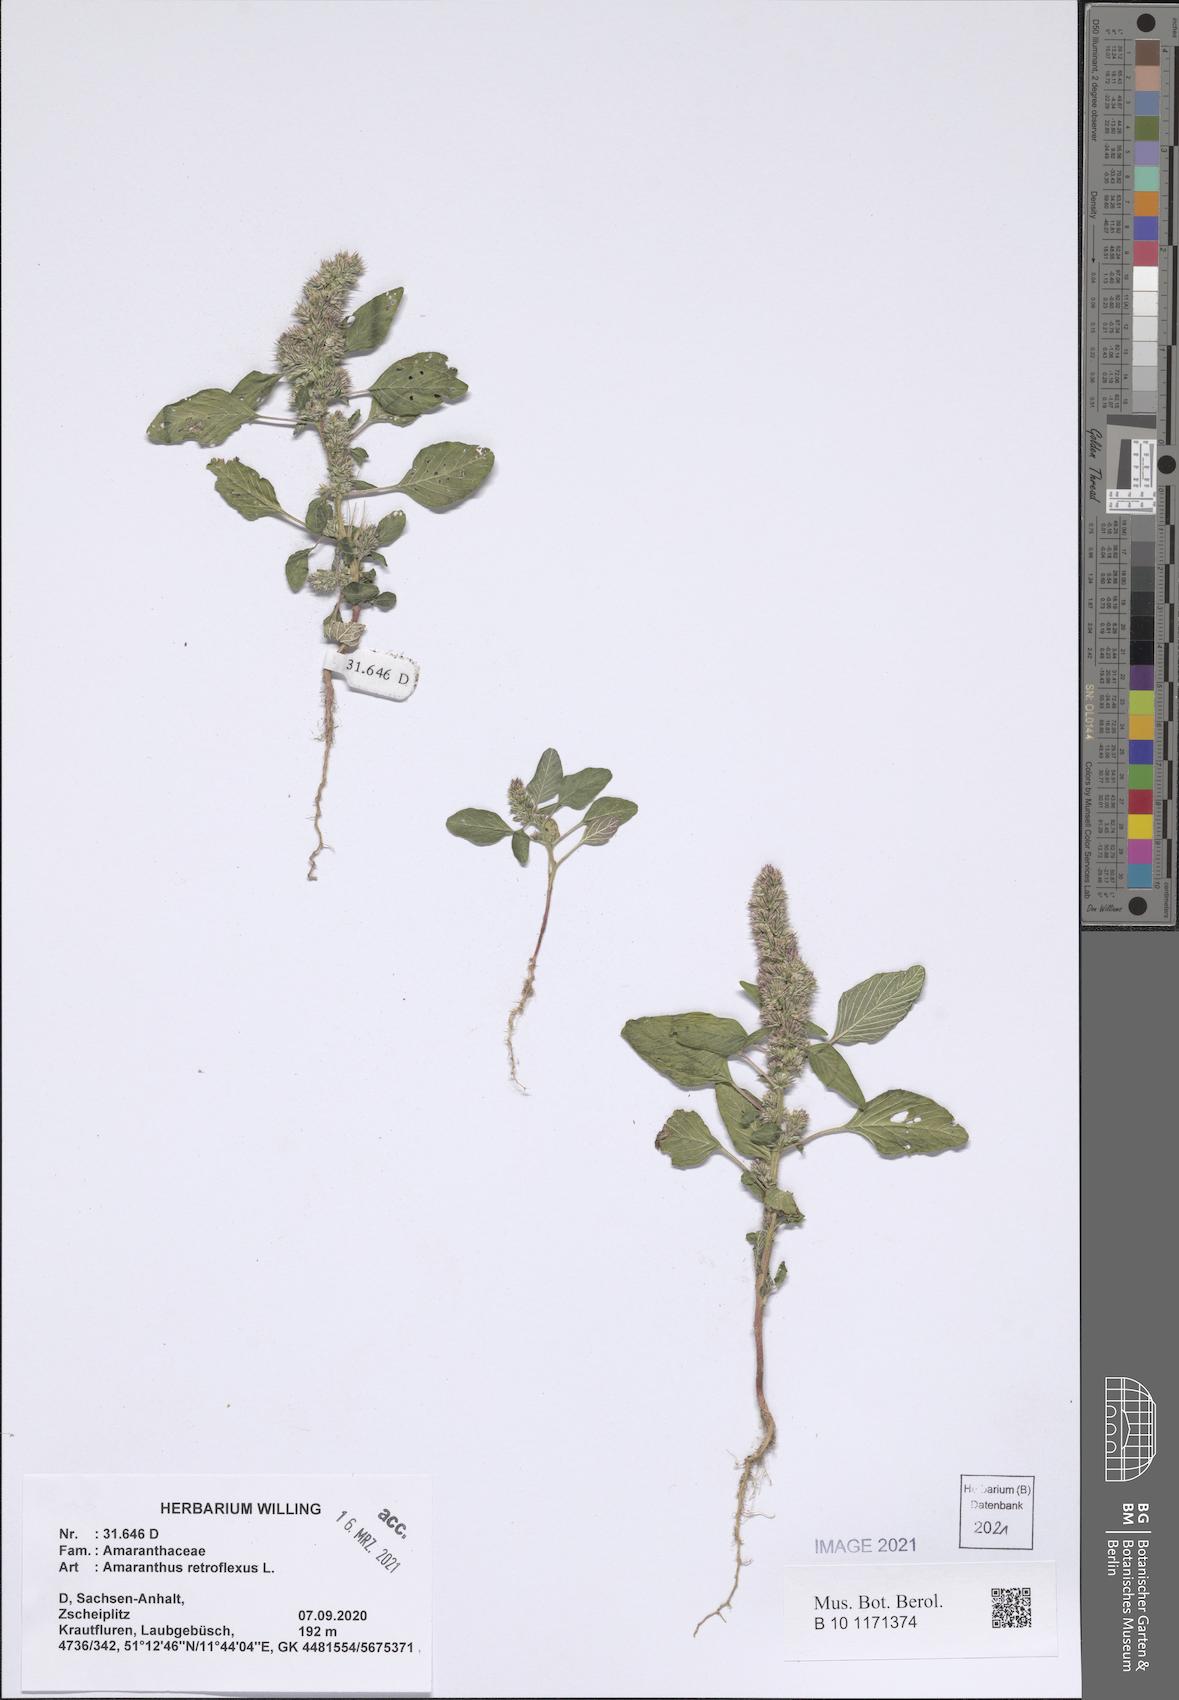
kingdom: Plantae
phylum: Tracheophyta
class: Magnoliopsida
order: Caryophyllales
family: Amaranthaceae
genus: Amaranthus
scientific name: Amaranthus retroflexus
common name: Redroot amaranth
